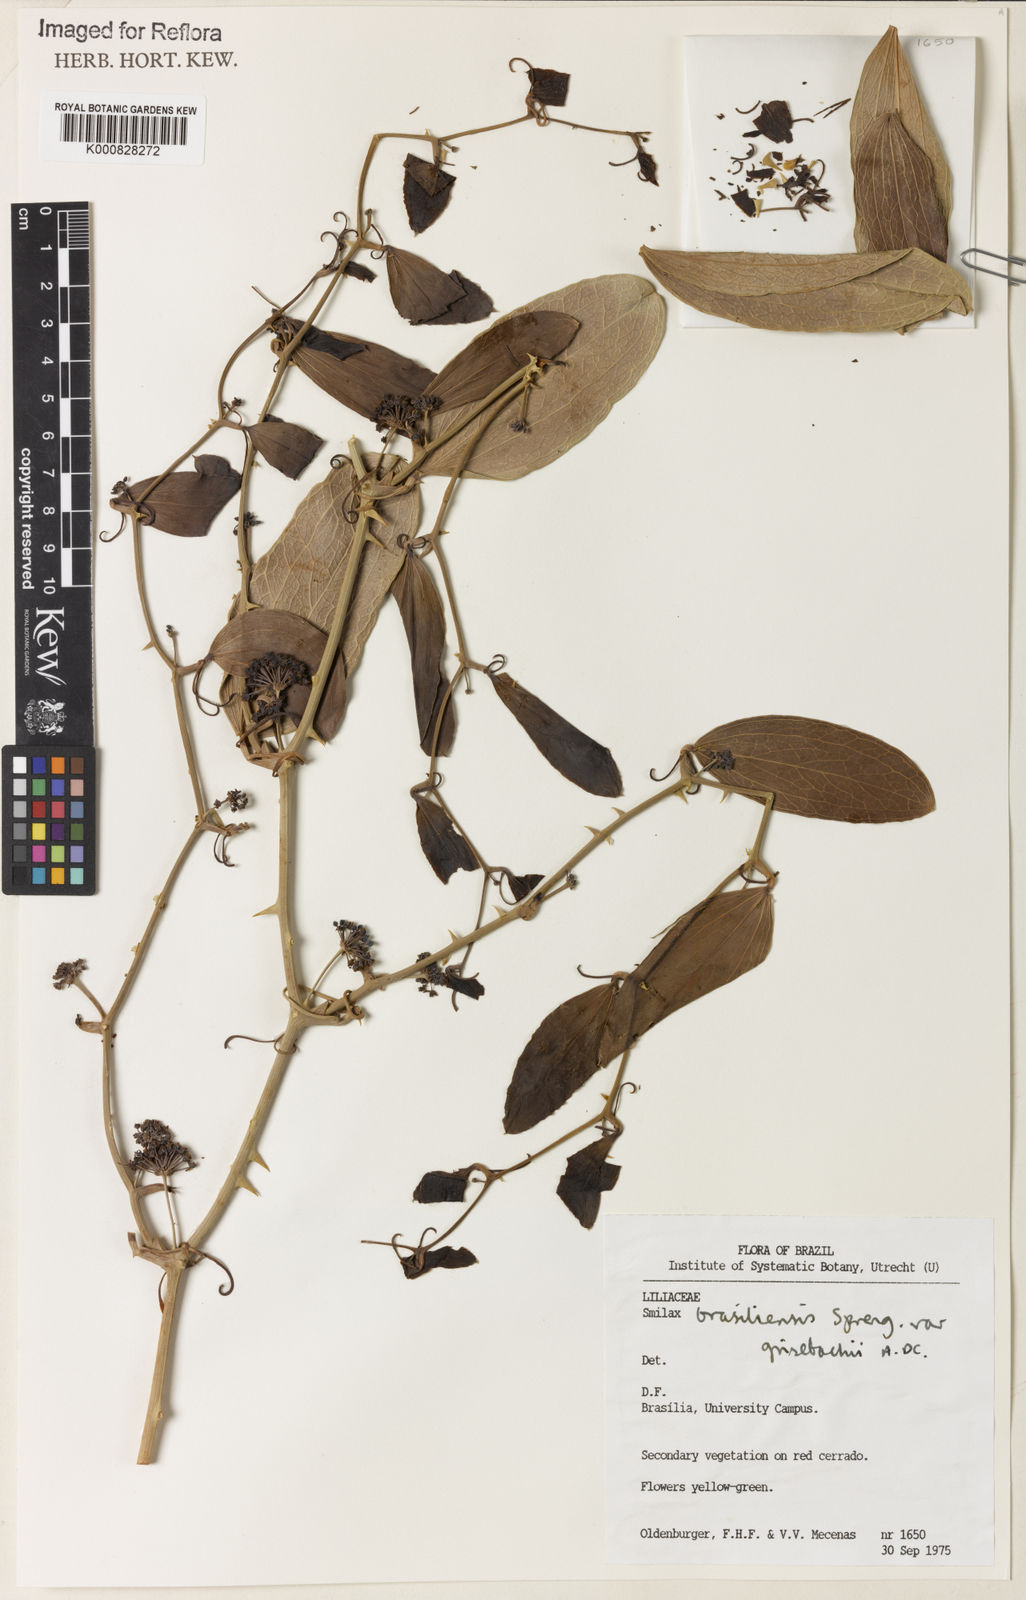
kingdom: Plantae
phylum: Tracheophyta
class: Liliopsida
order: Liliales
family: Smilacaceae
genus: Smilax
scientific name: Smilax brasiliensis
